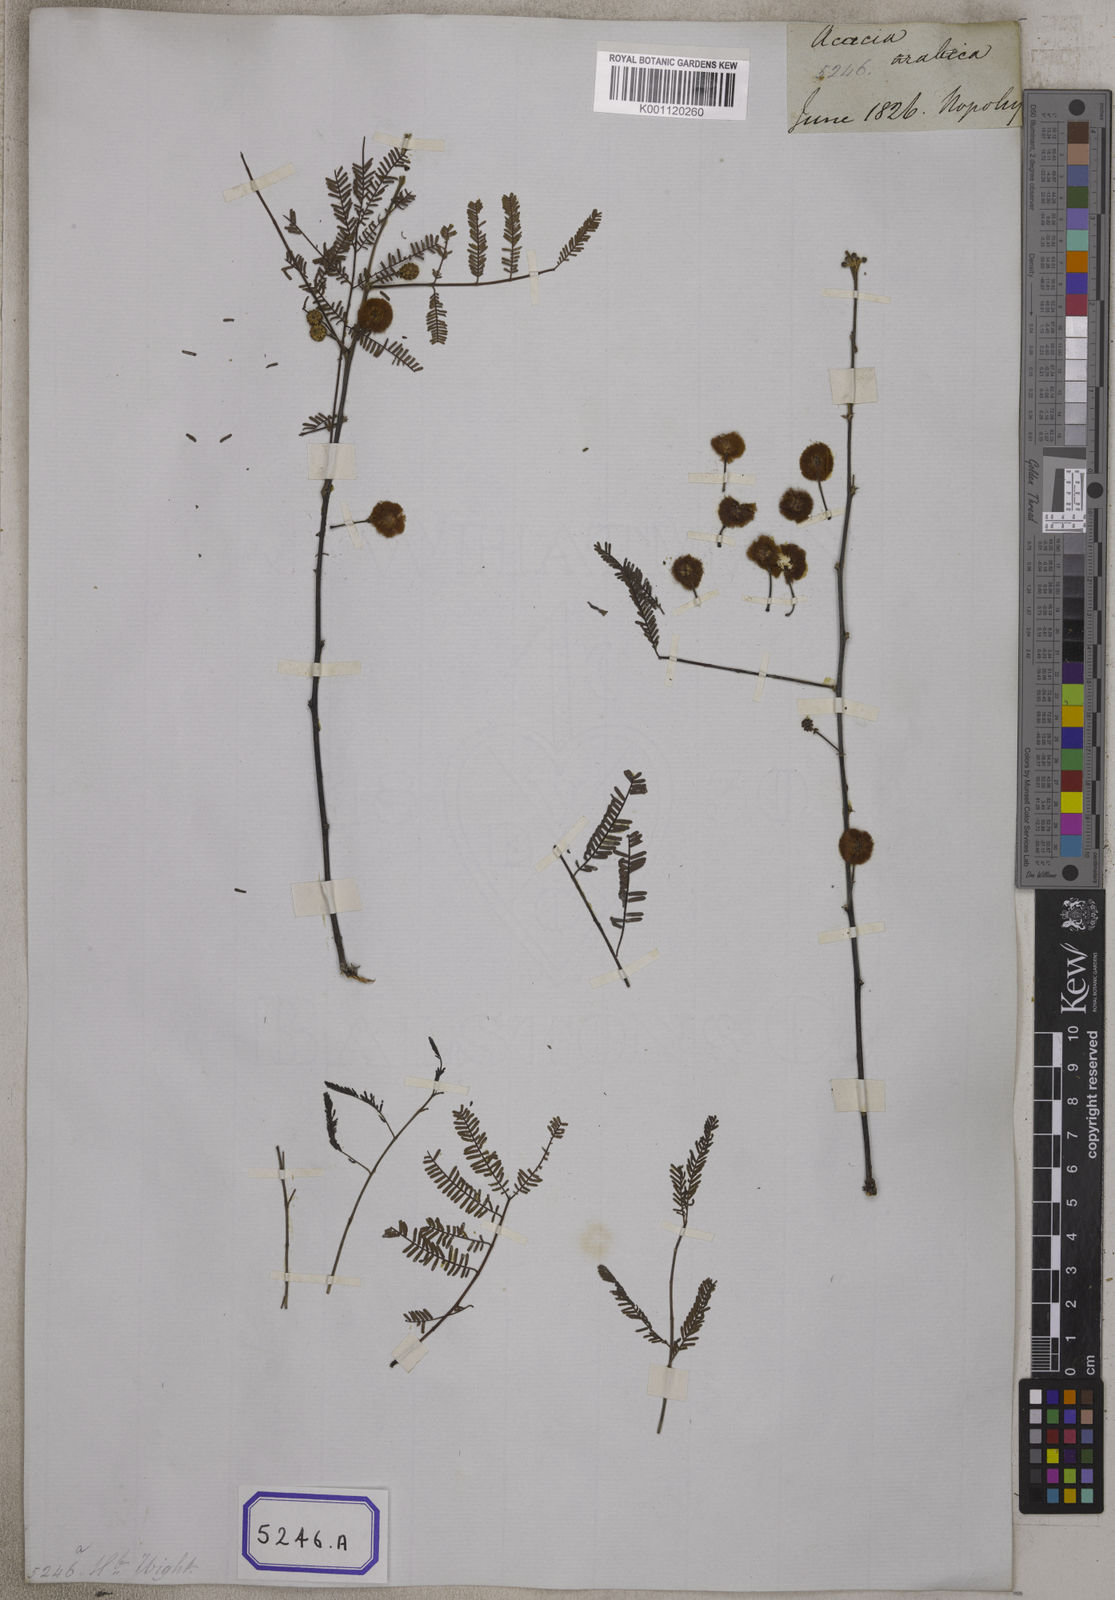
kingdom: Plantae
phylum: Tracheophyta
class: Magnoliopsida
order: Fabales
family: Fabaceae
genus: Vachellia
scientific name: Vachellia nilotica
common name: Arabic gumtree
